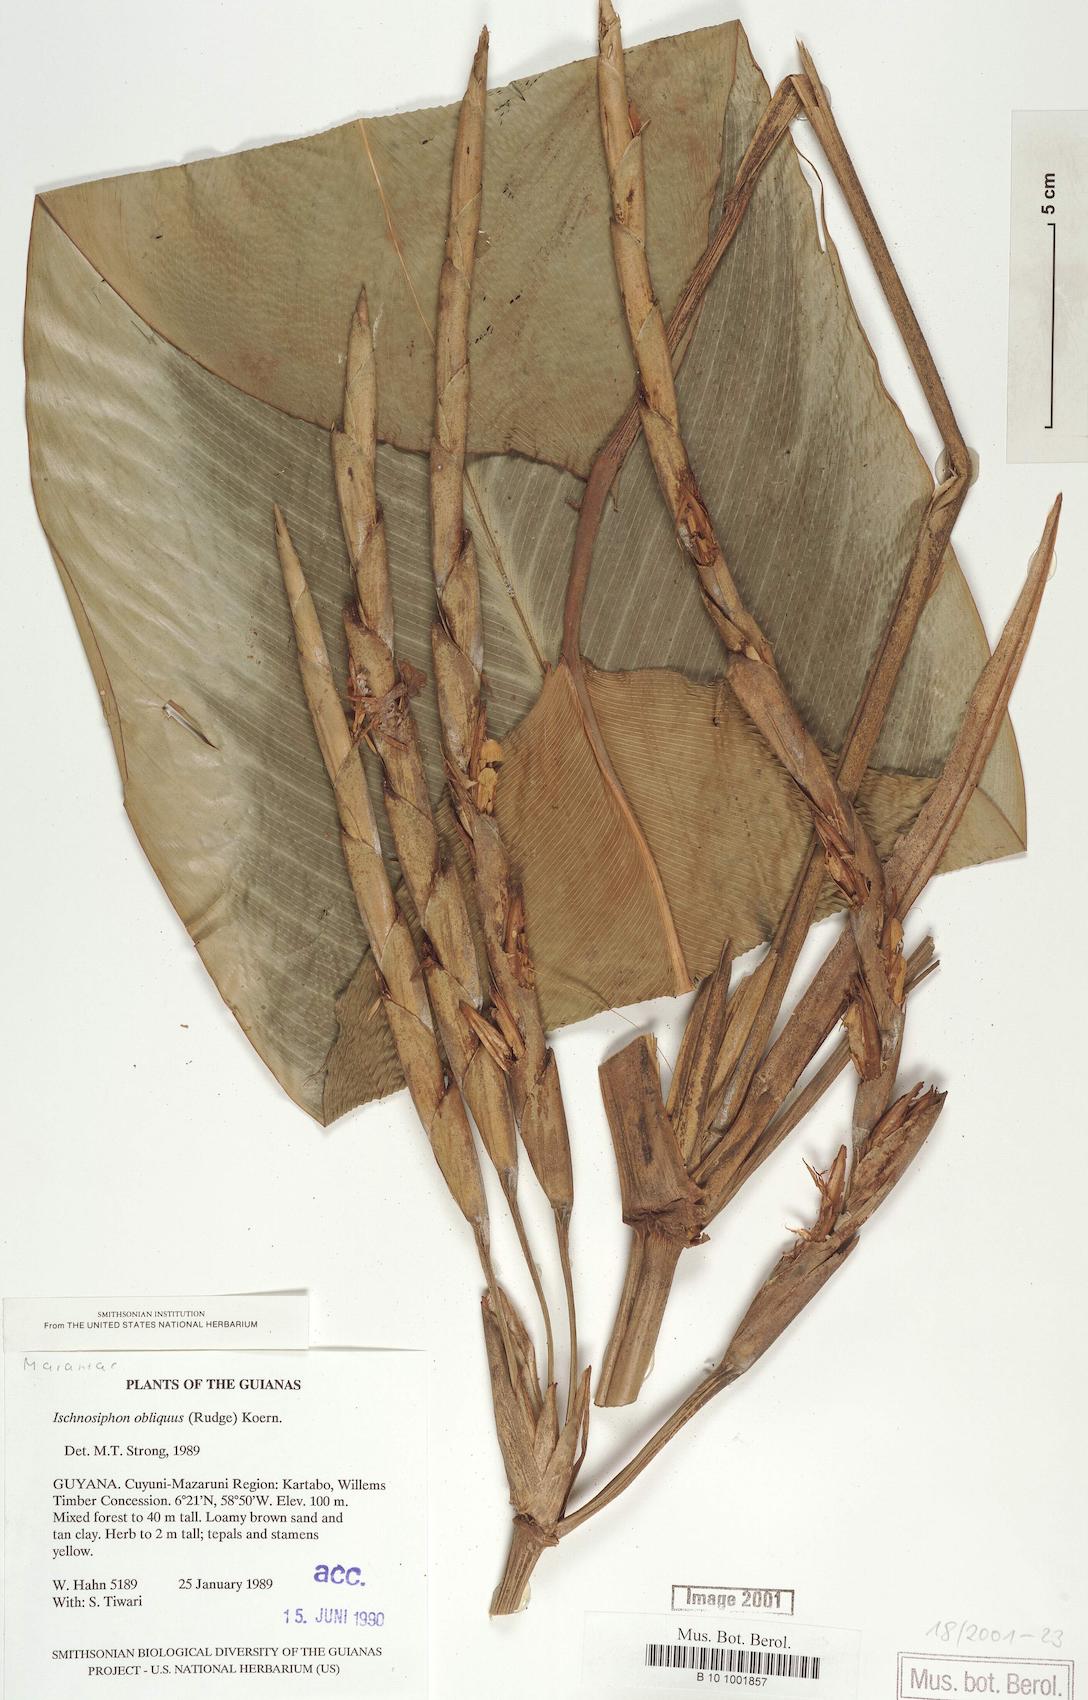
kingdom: Plantae
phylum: Tracheophyta
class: Liliopsida
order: Zingiberales
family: Marantaceae
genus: Ischnosiphon
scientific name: Ischnosiphon obliquus
